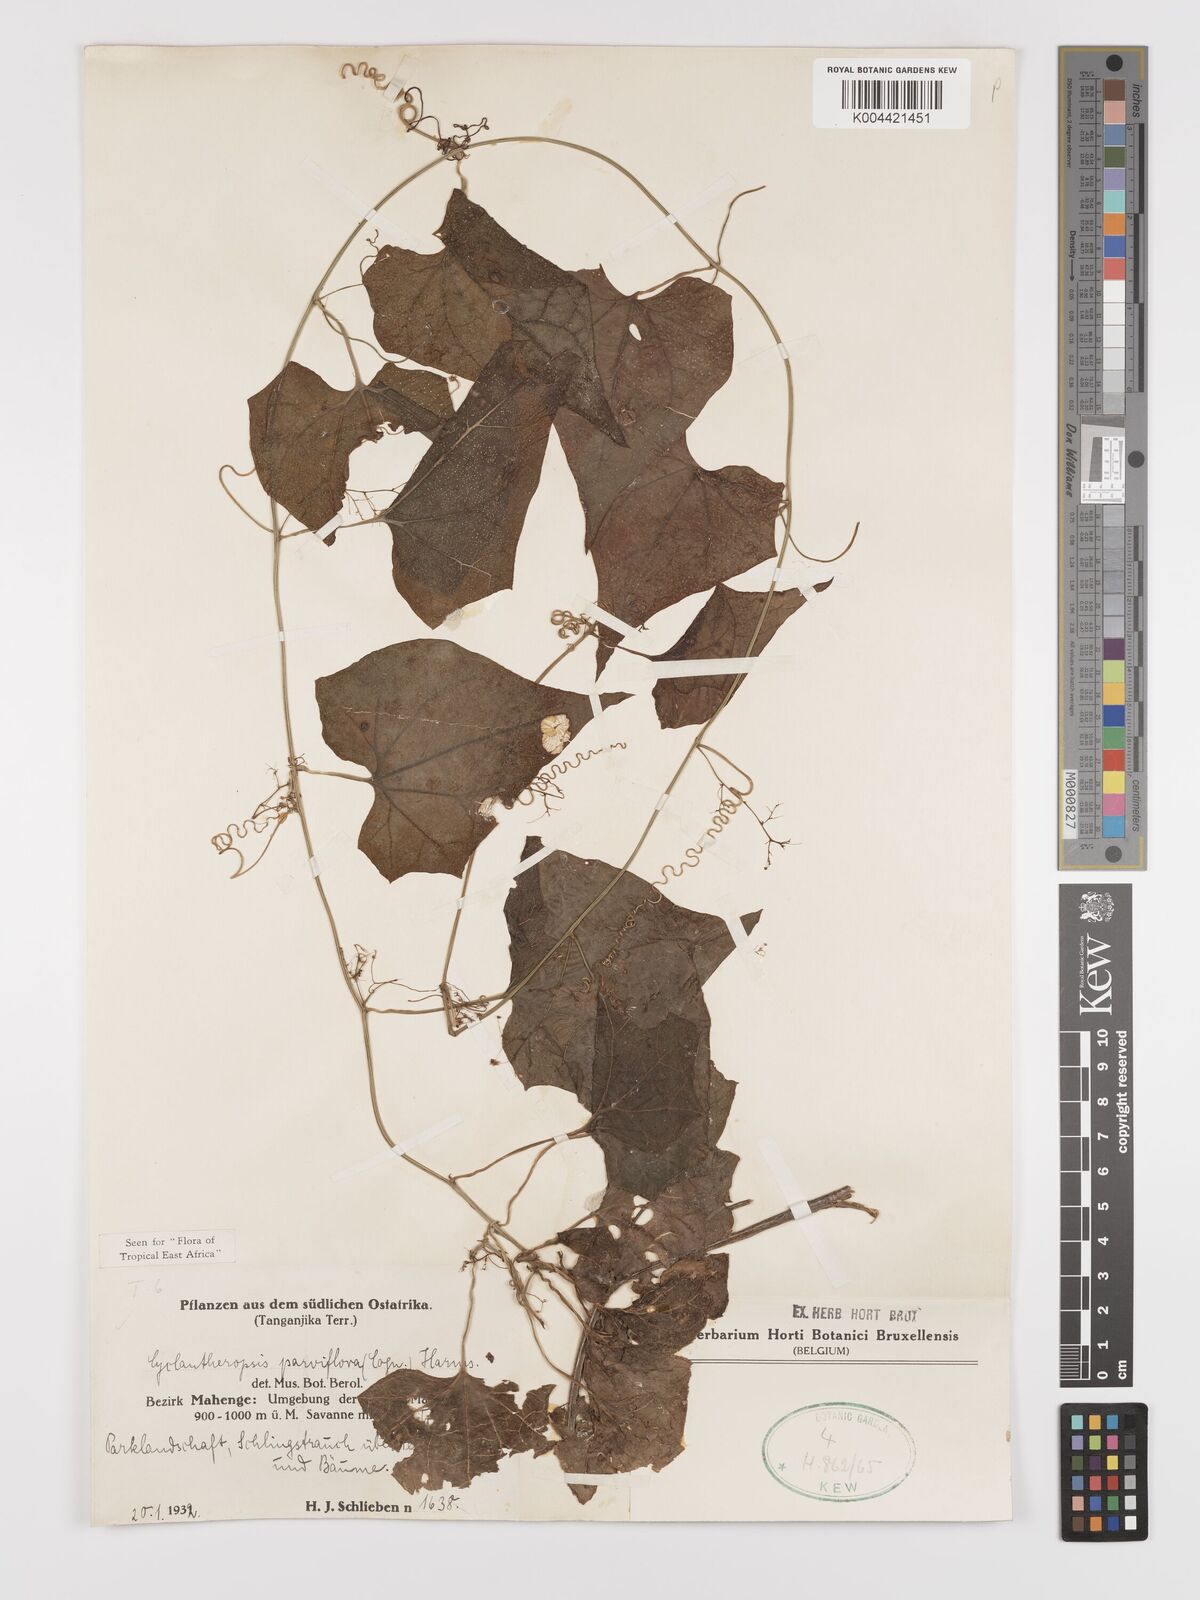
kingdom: Plantae
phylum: Tracheophyta
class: Magnoliopsida
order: Cucurbitales
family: Cucurbitaceae
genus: Cyclantheropsis
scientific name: Cyclantheropsis parviflora
